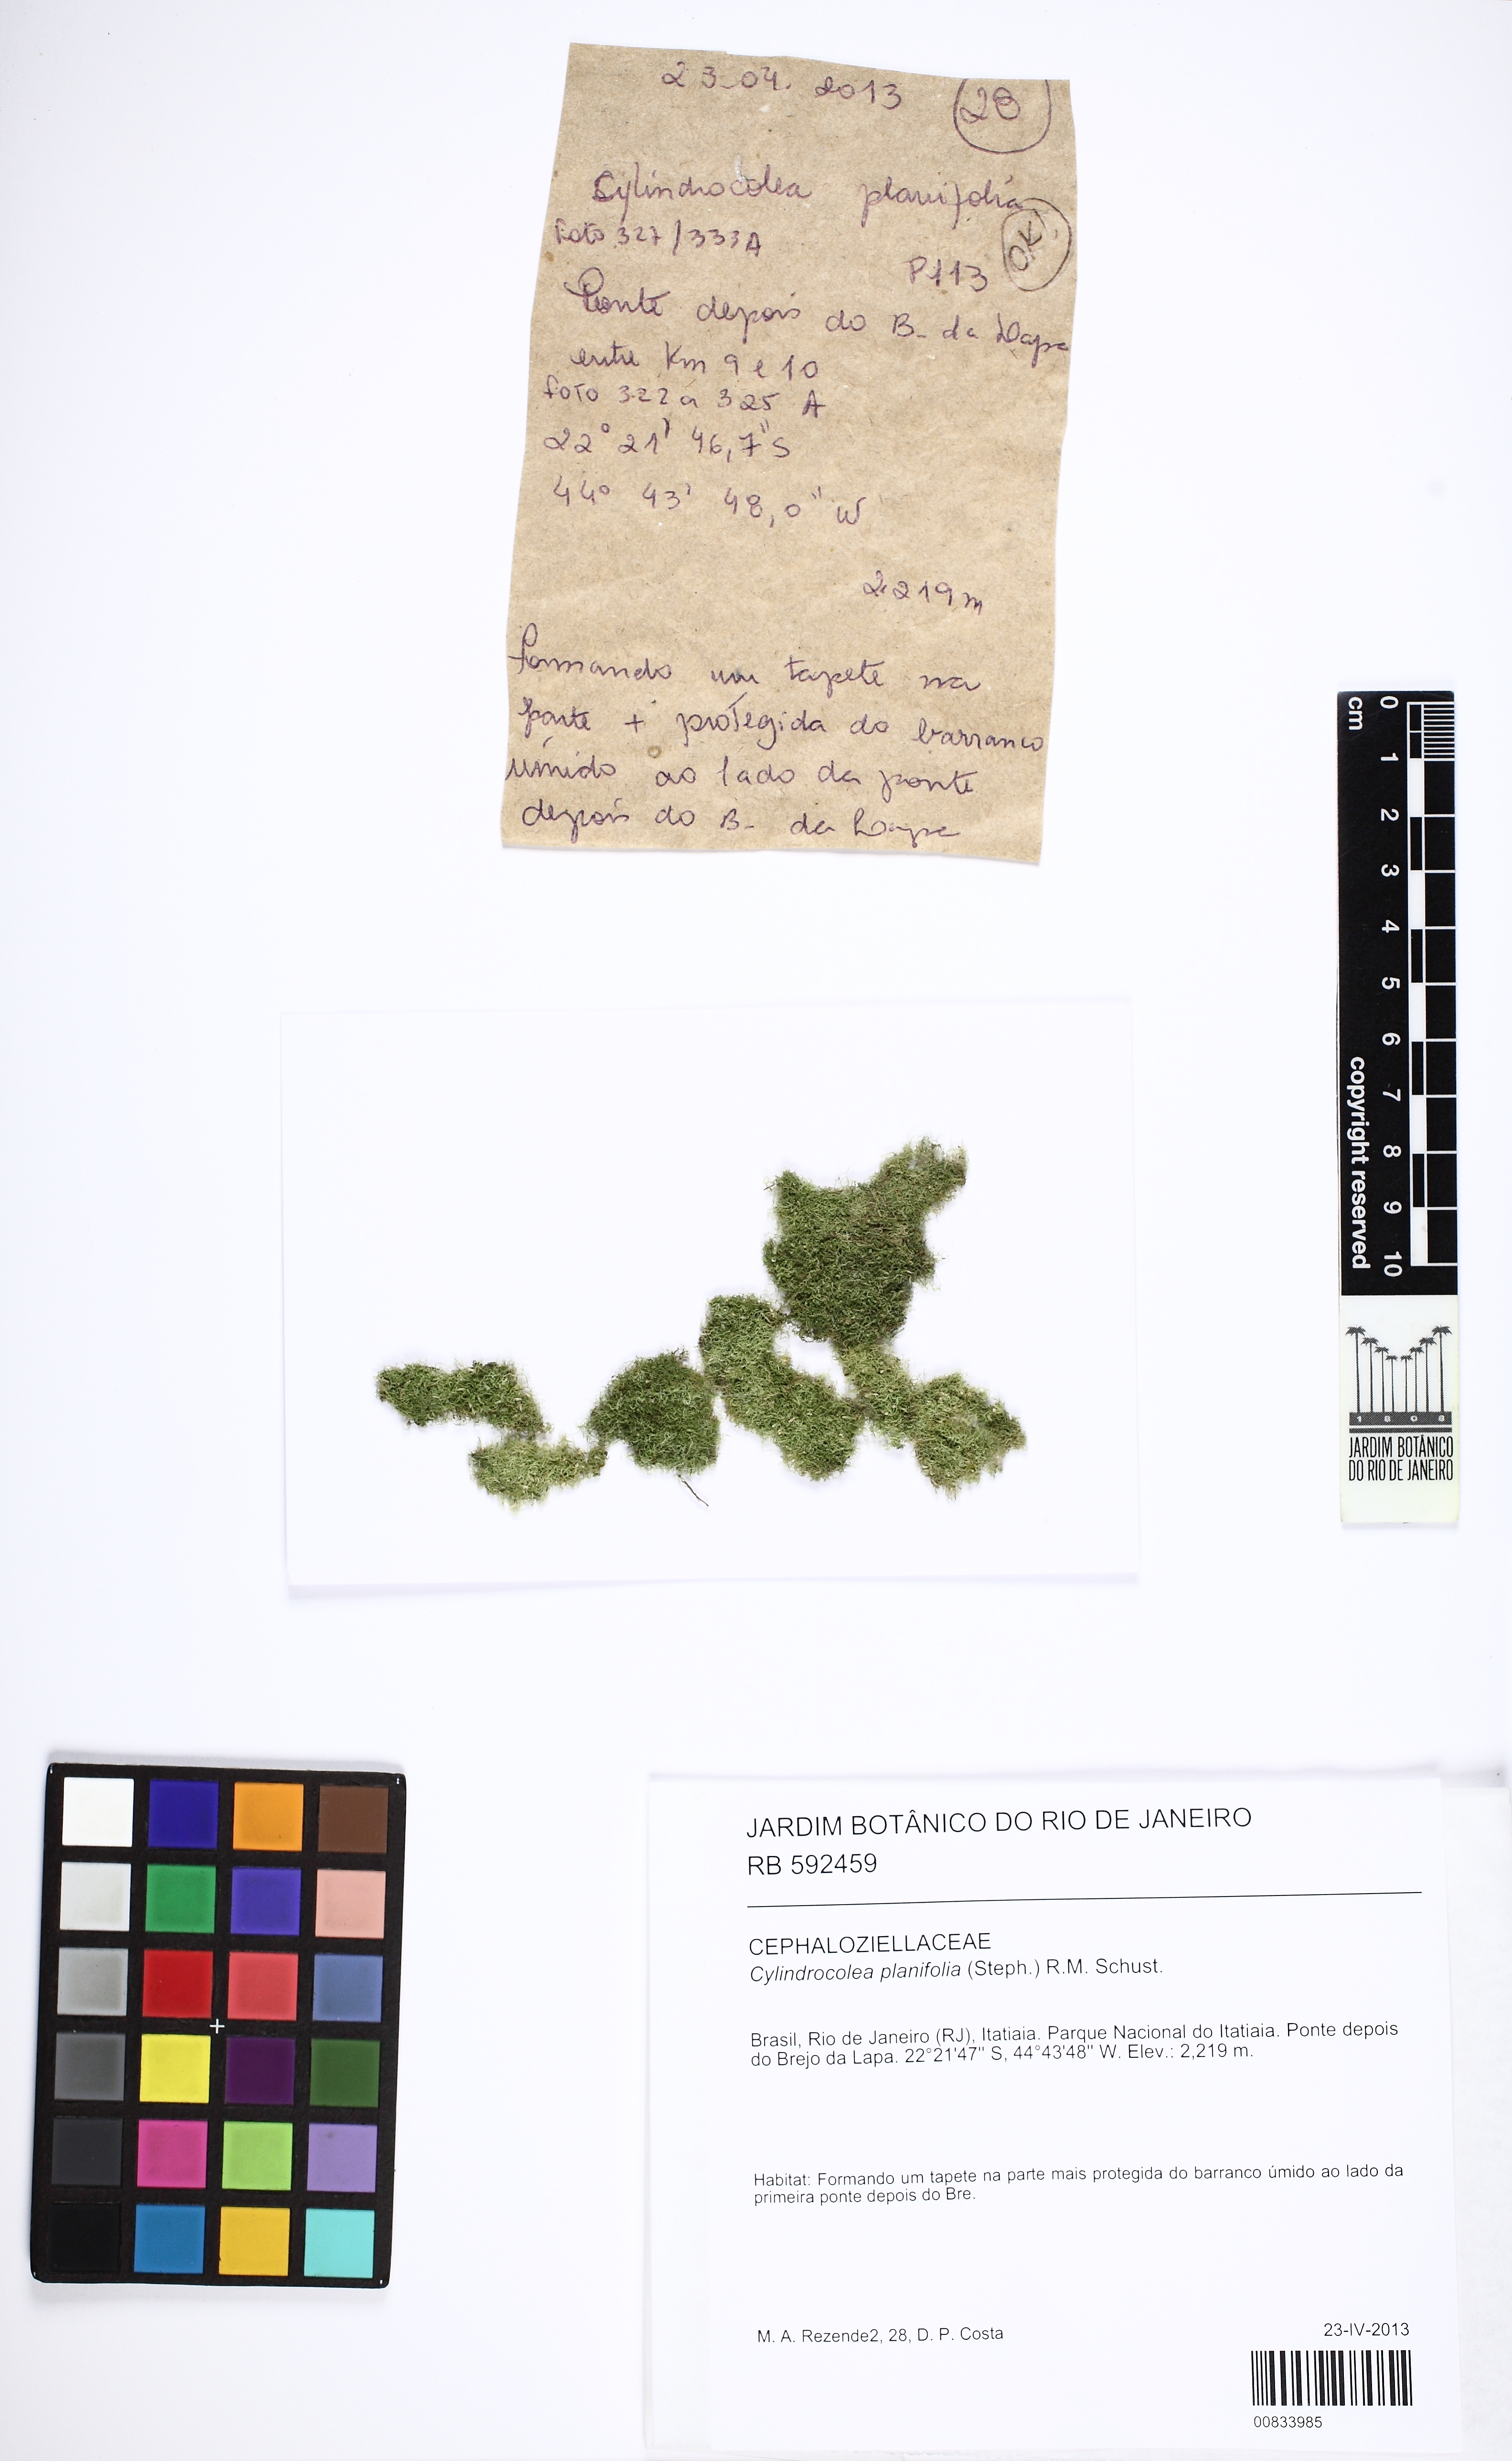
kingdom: Plantae
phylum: Marchantiophyta
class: Jungermanniopsida
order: Jungermanniales
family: Cephaloziellaceae
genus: Cylindrocolea
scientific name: Cylindrocolea planifolia
